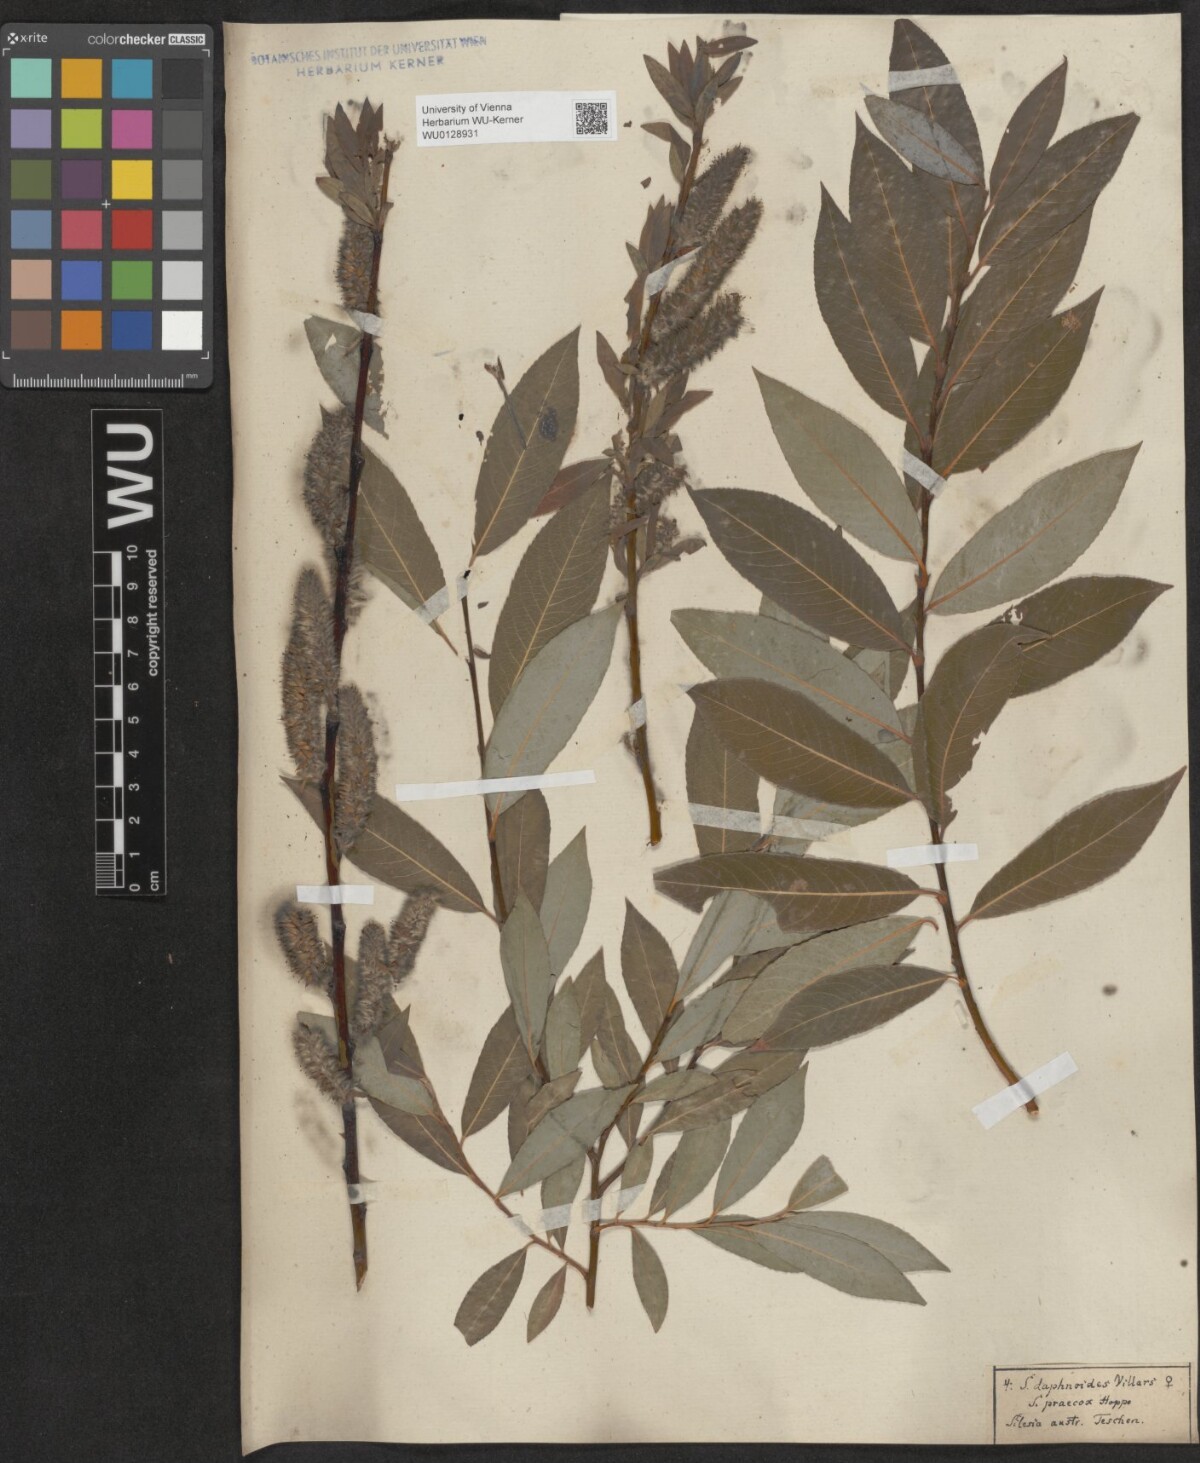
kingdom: Plantae
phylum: Tracheophyta
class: Magnoliopsida
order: Malpighiales
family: Salicaceae
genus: Salix
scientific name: Salix daphnoides
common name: European violet-willow
